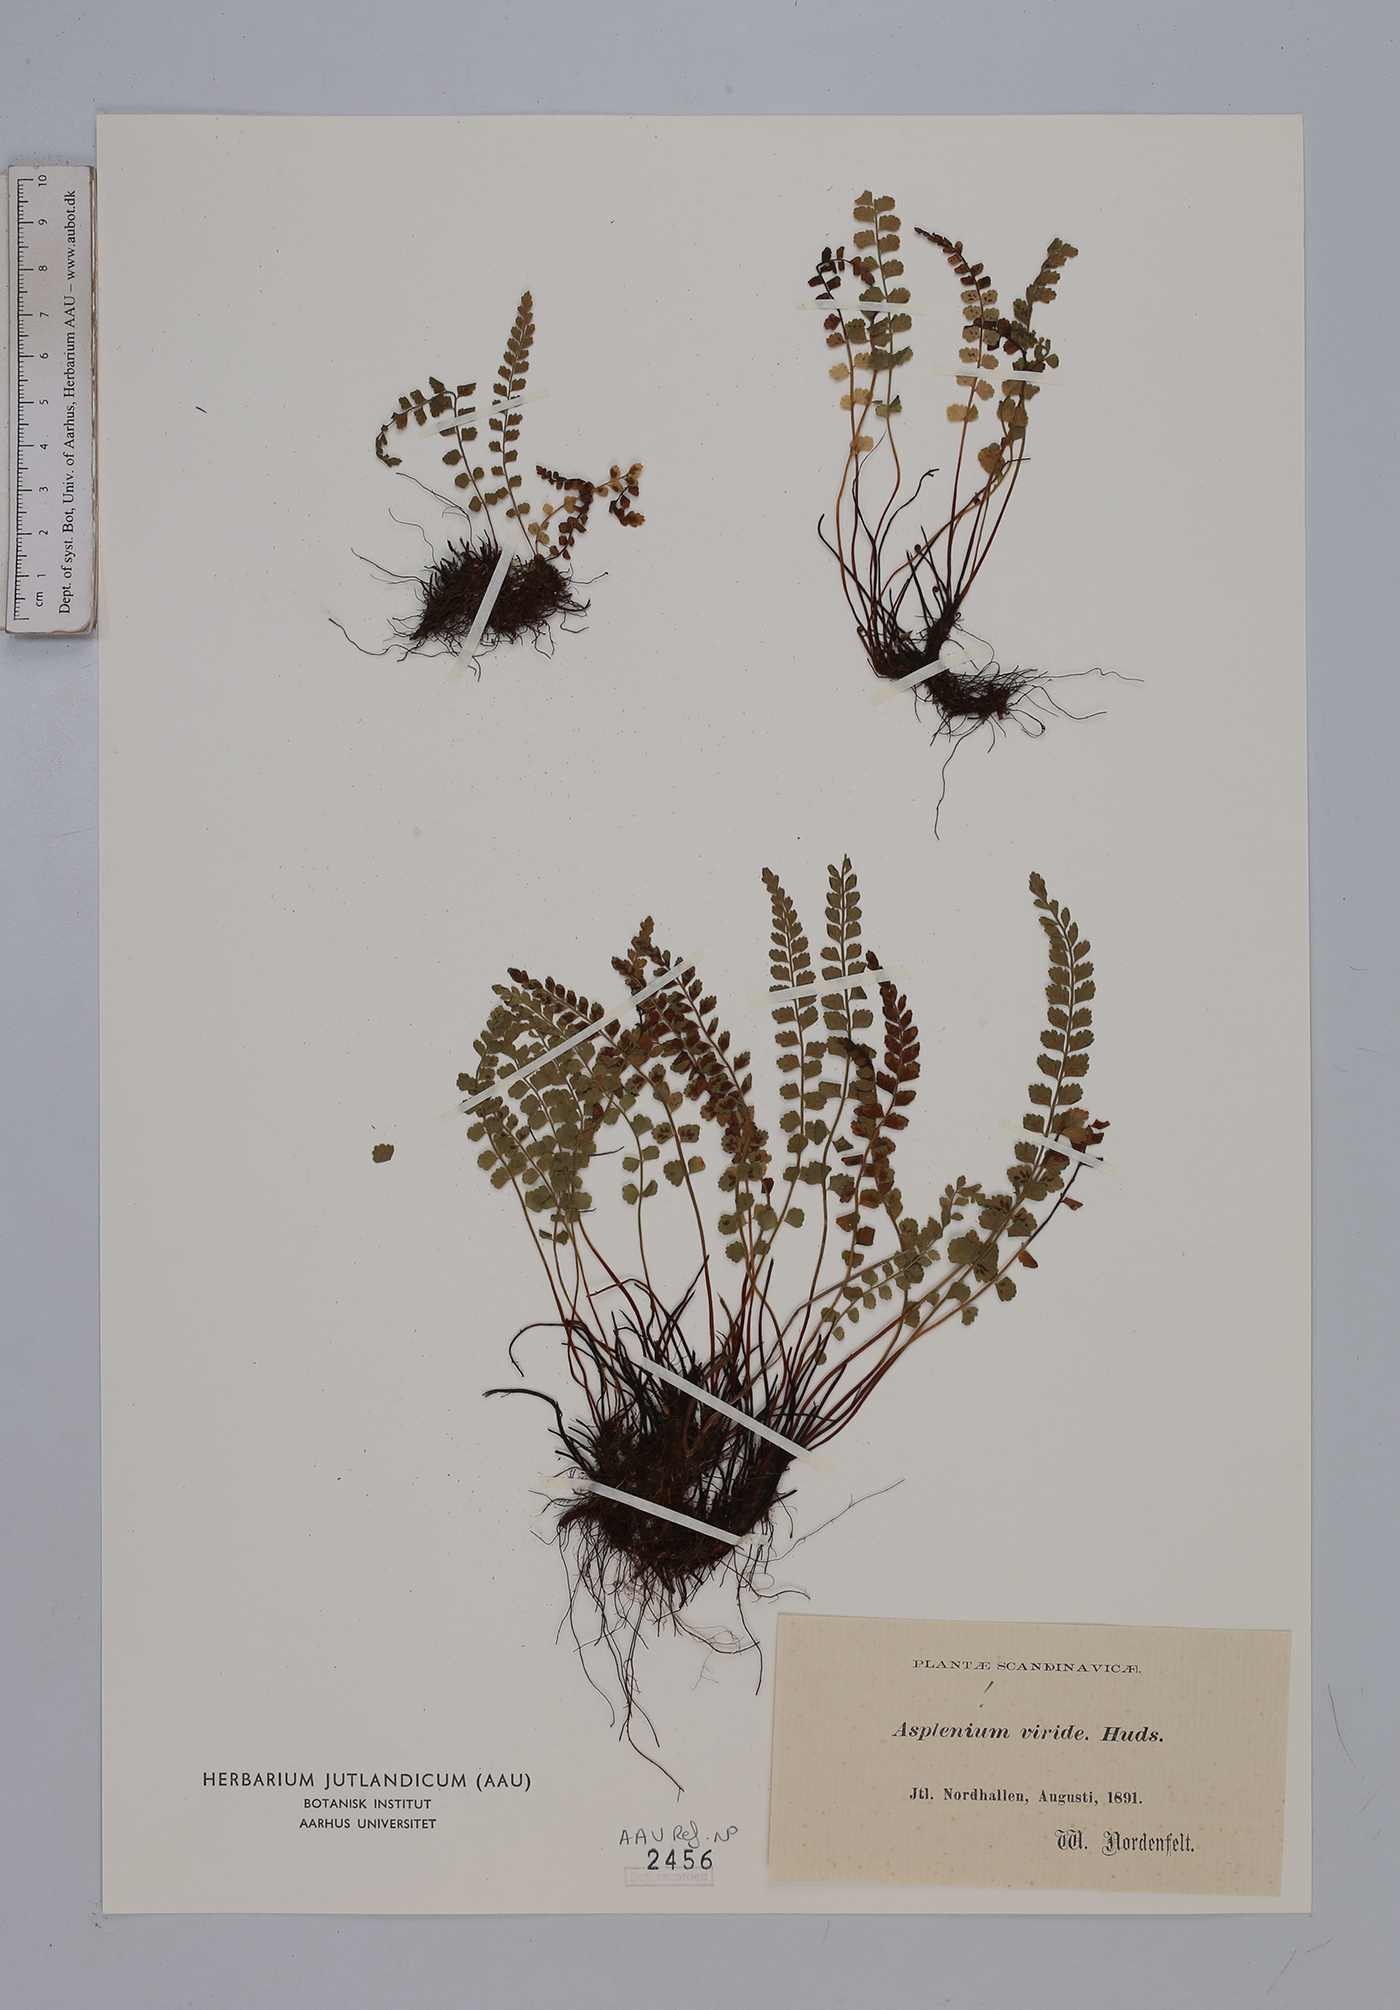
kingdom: Plantae
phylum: Tracheophyta
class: Polypodiopsida
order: Polypodiales
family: Aspleniaceae
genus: Asplenium
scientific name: Asplenium viride
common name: Green spleenwort
